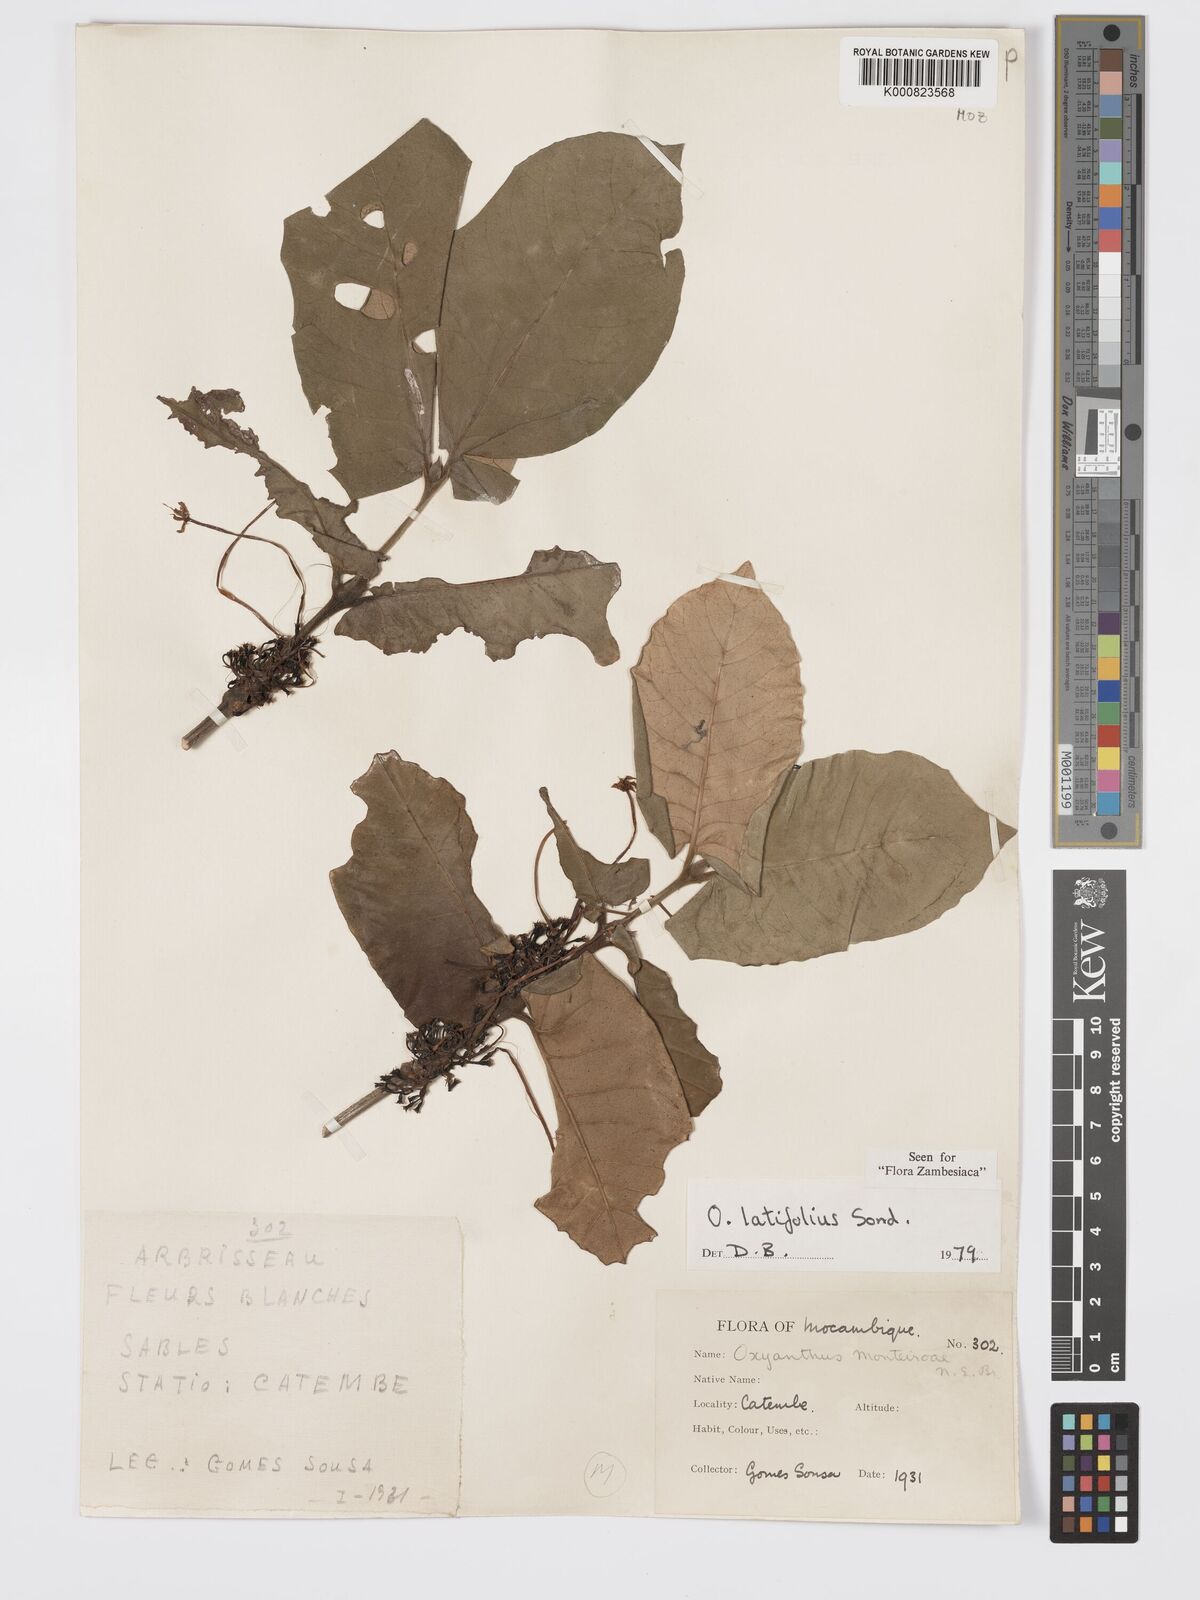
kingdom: Plantae
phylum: Tracheophyta
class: Magnoliopsida
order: Gentianales
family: Rubiaceae
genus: Oxyanthus
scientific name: Oxyanthus latifolius
